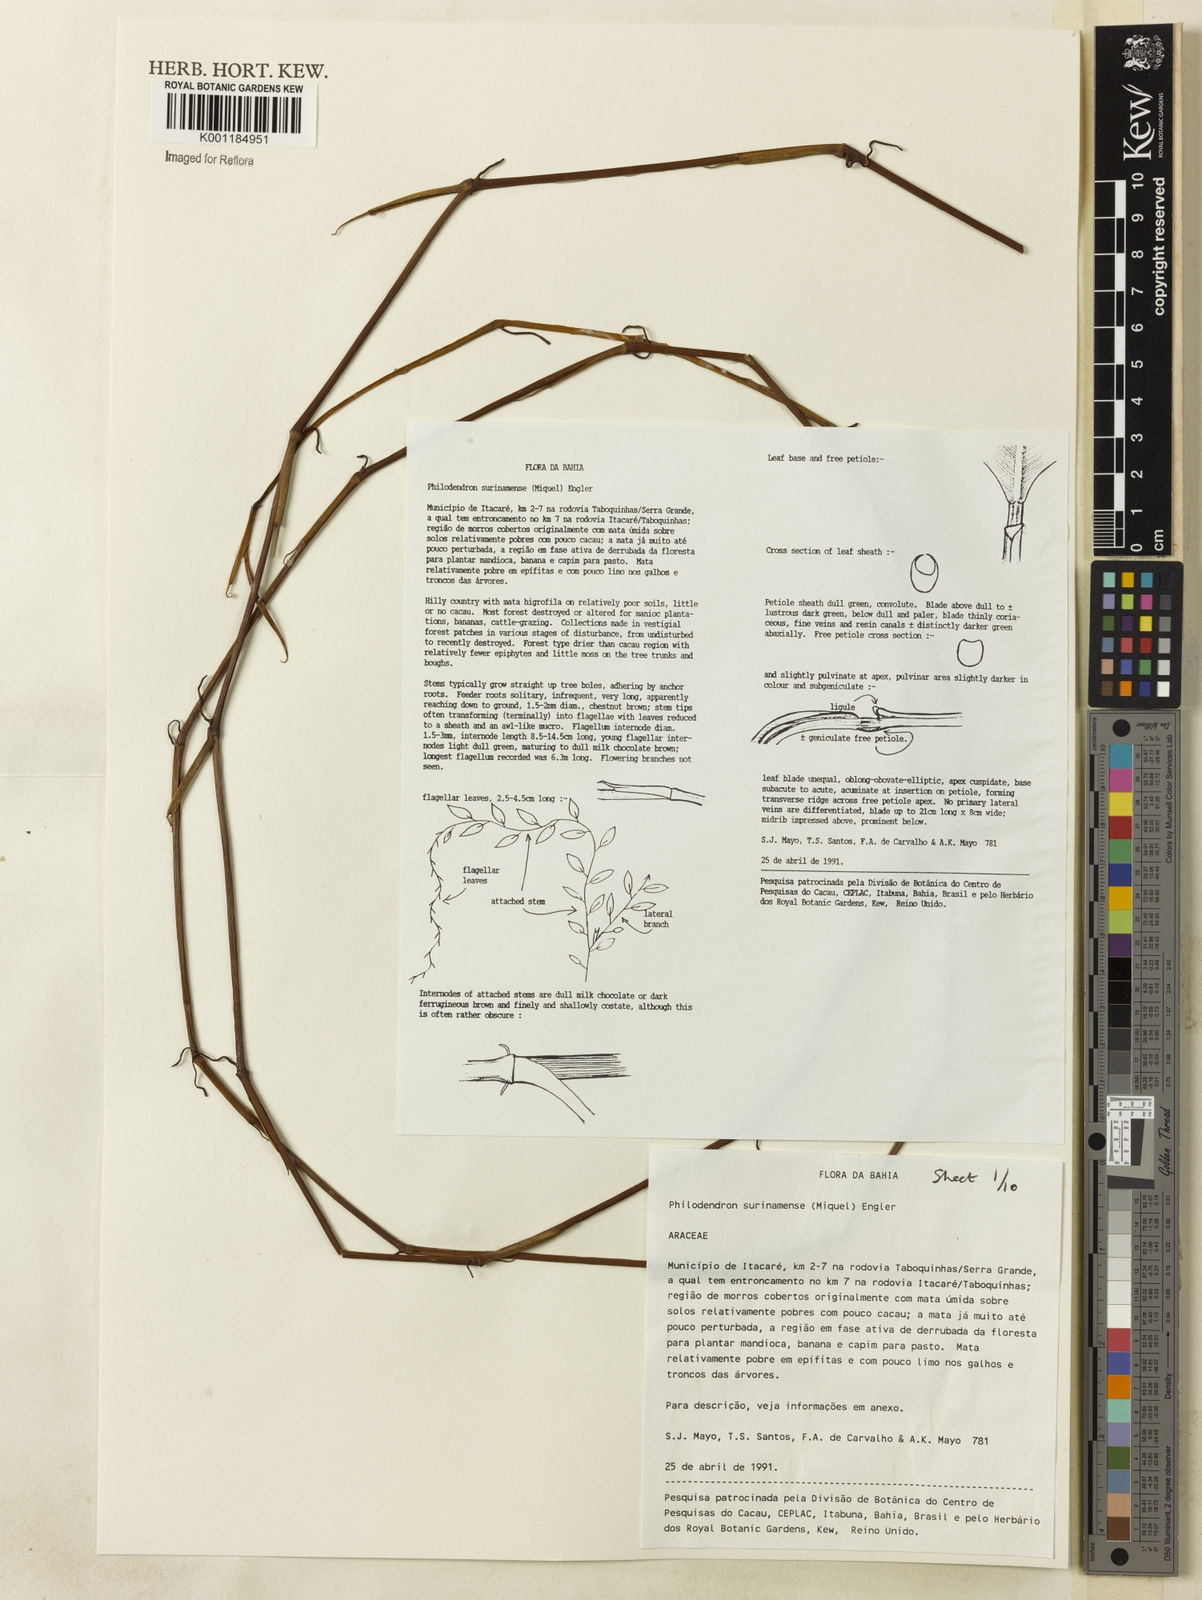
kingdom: Plantae
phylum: Tracheophyta
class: Liliopsida
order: Alismatales
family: Araceae
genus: Philodendron
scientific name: Philodendron surinamense
